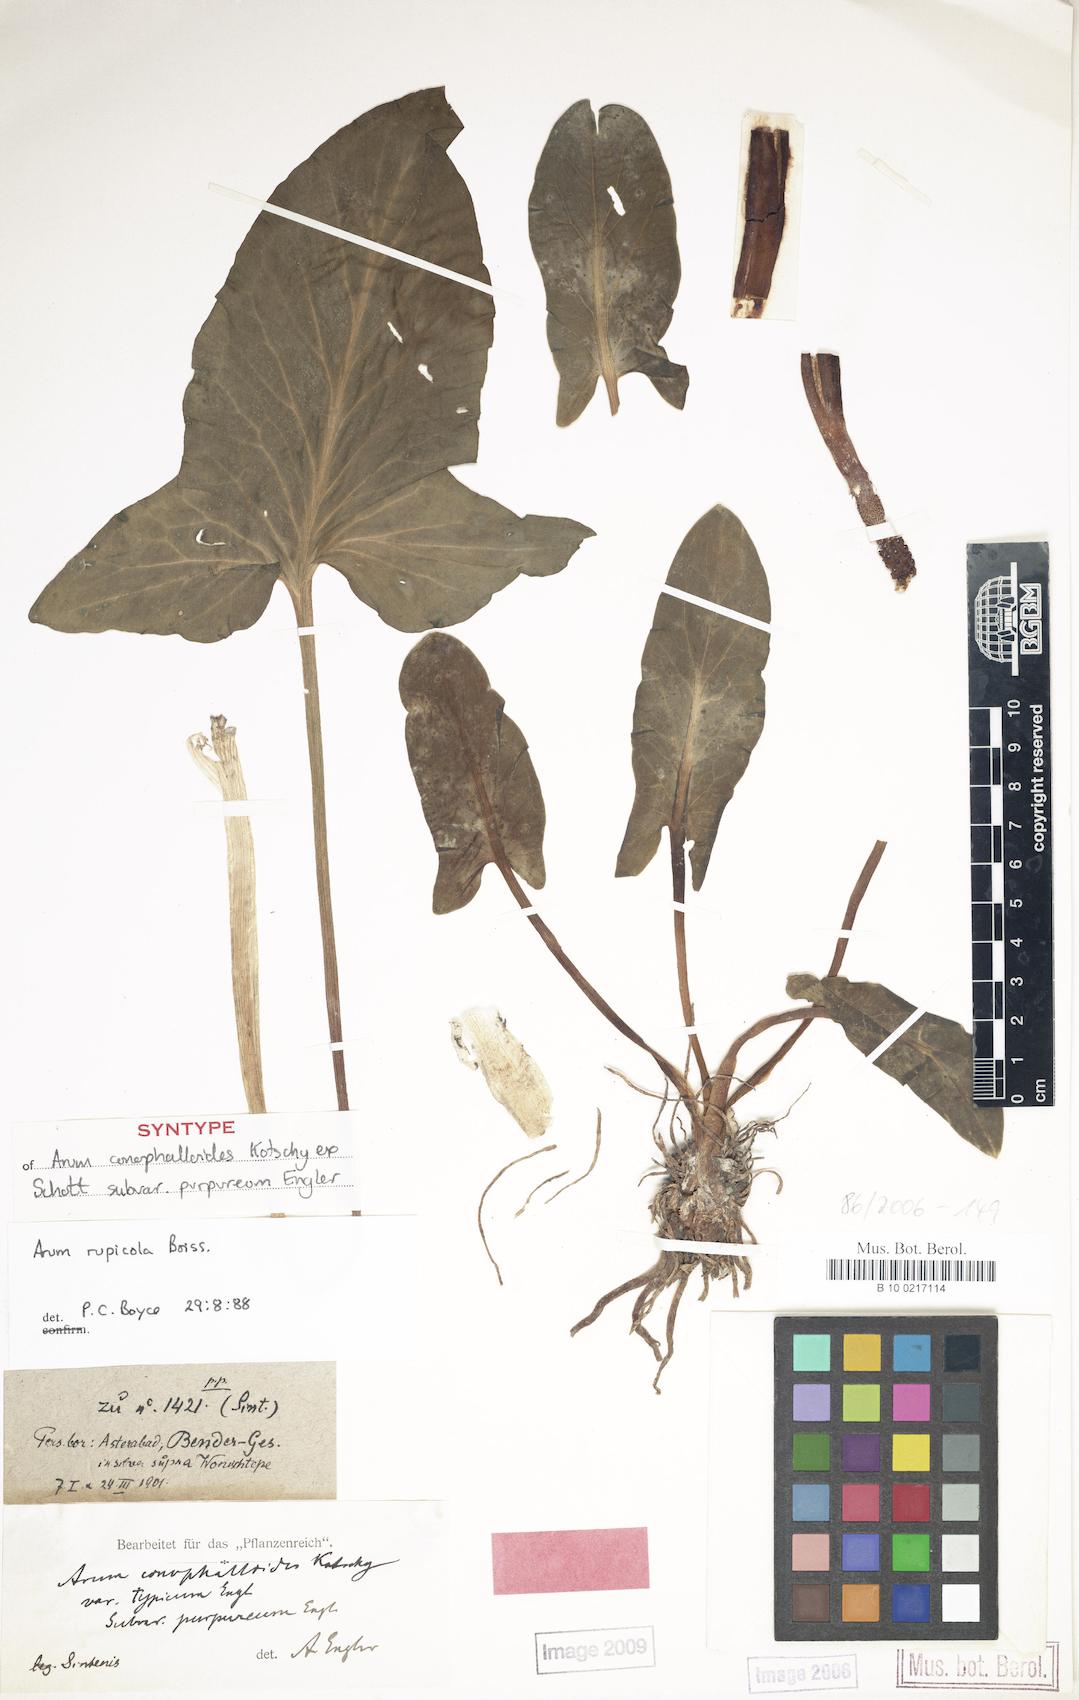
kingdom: Plantae
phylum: Tracheophyta
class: Liliopsida
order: Alismatales
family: Araceae
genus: Arum
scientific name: Arum rupicola
